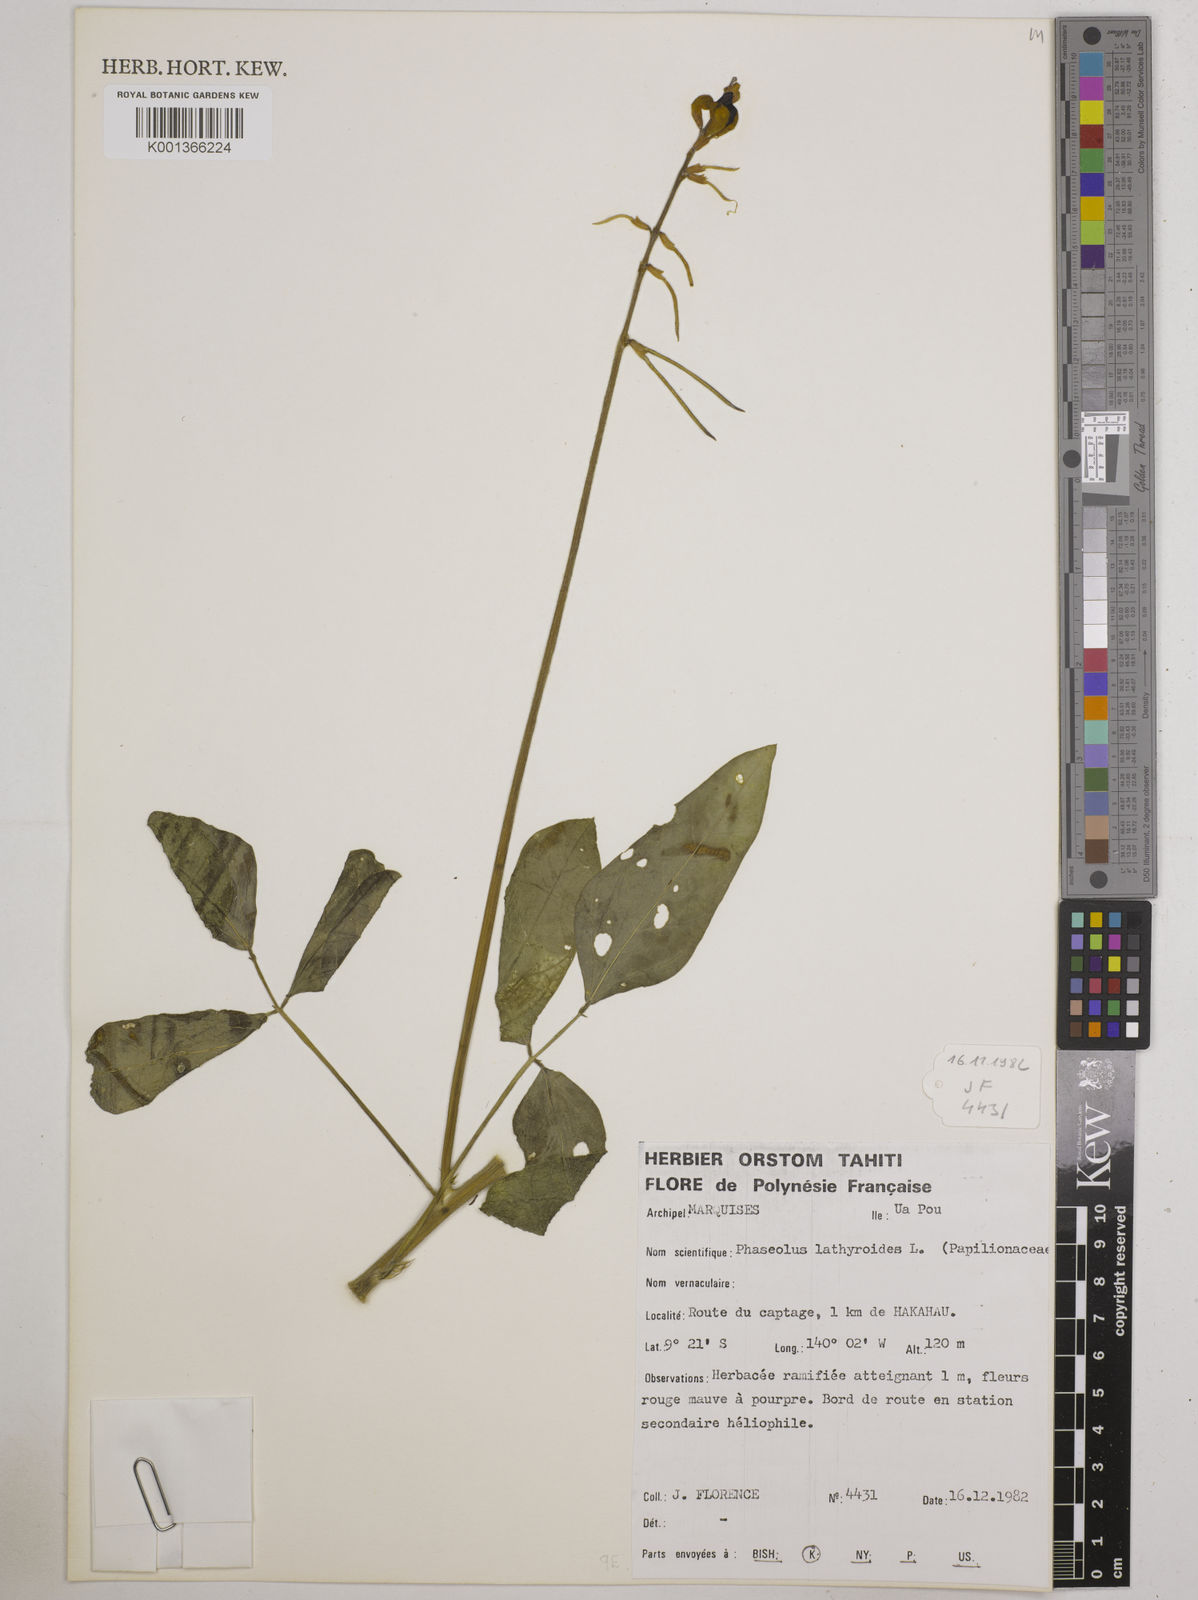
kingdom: Plantae
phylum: Tracheophyta
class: Magnoliopsida
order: Fabales
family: Fabaceae
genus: Macroptilium
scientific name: Macroptilium lathyroides
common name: Wild bushbean
